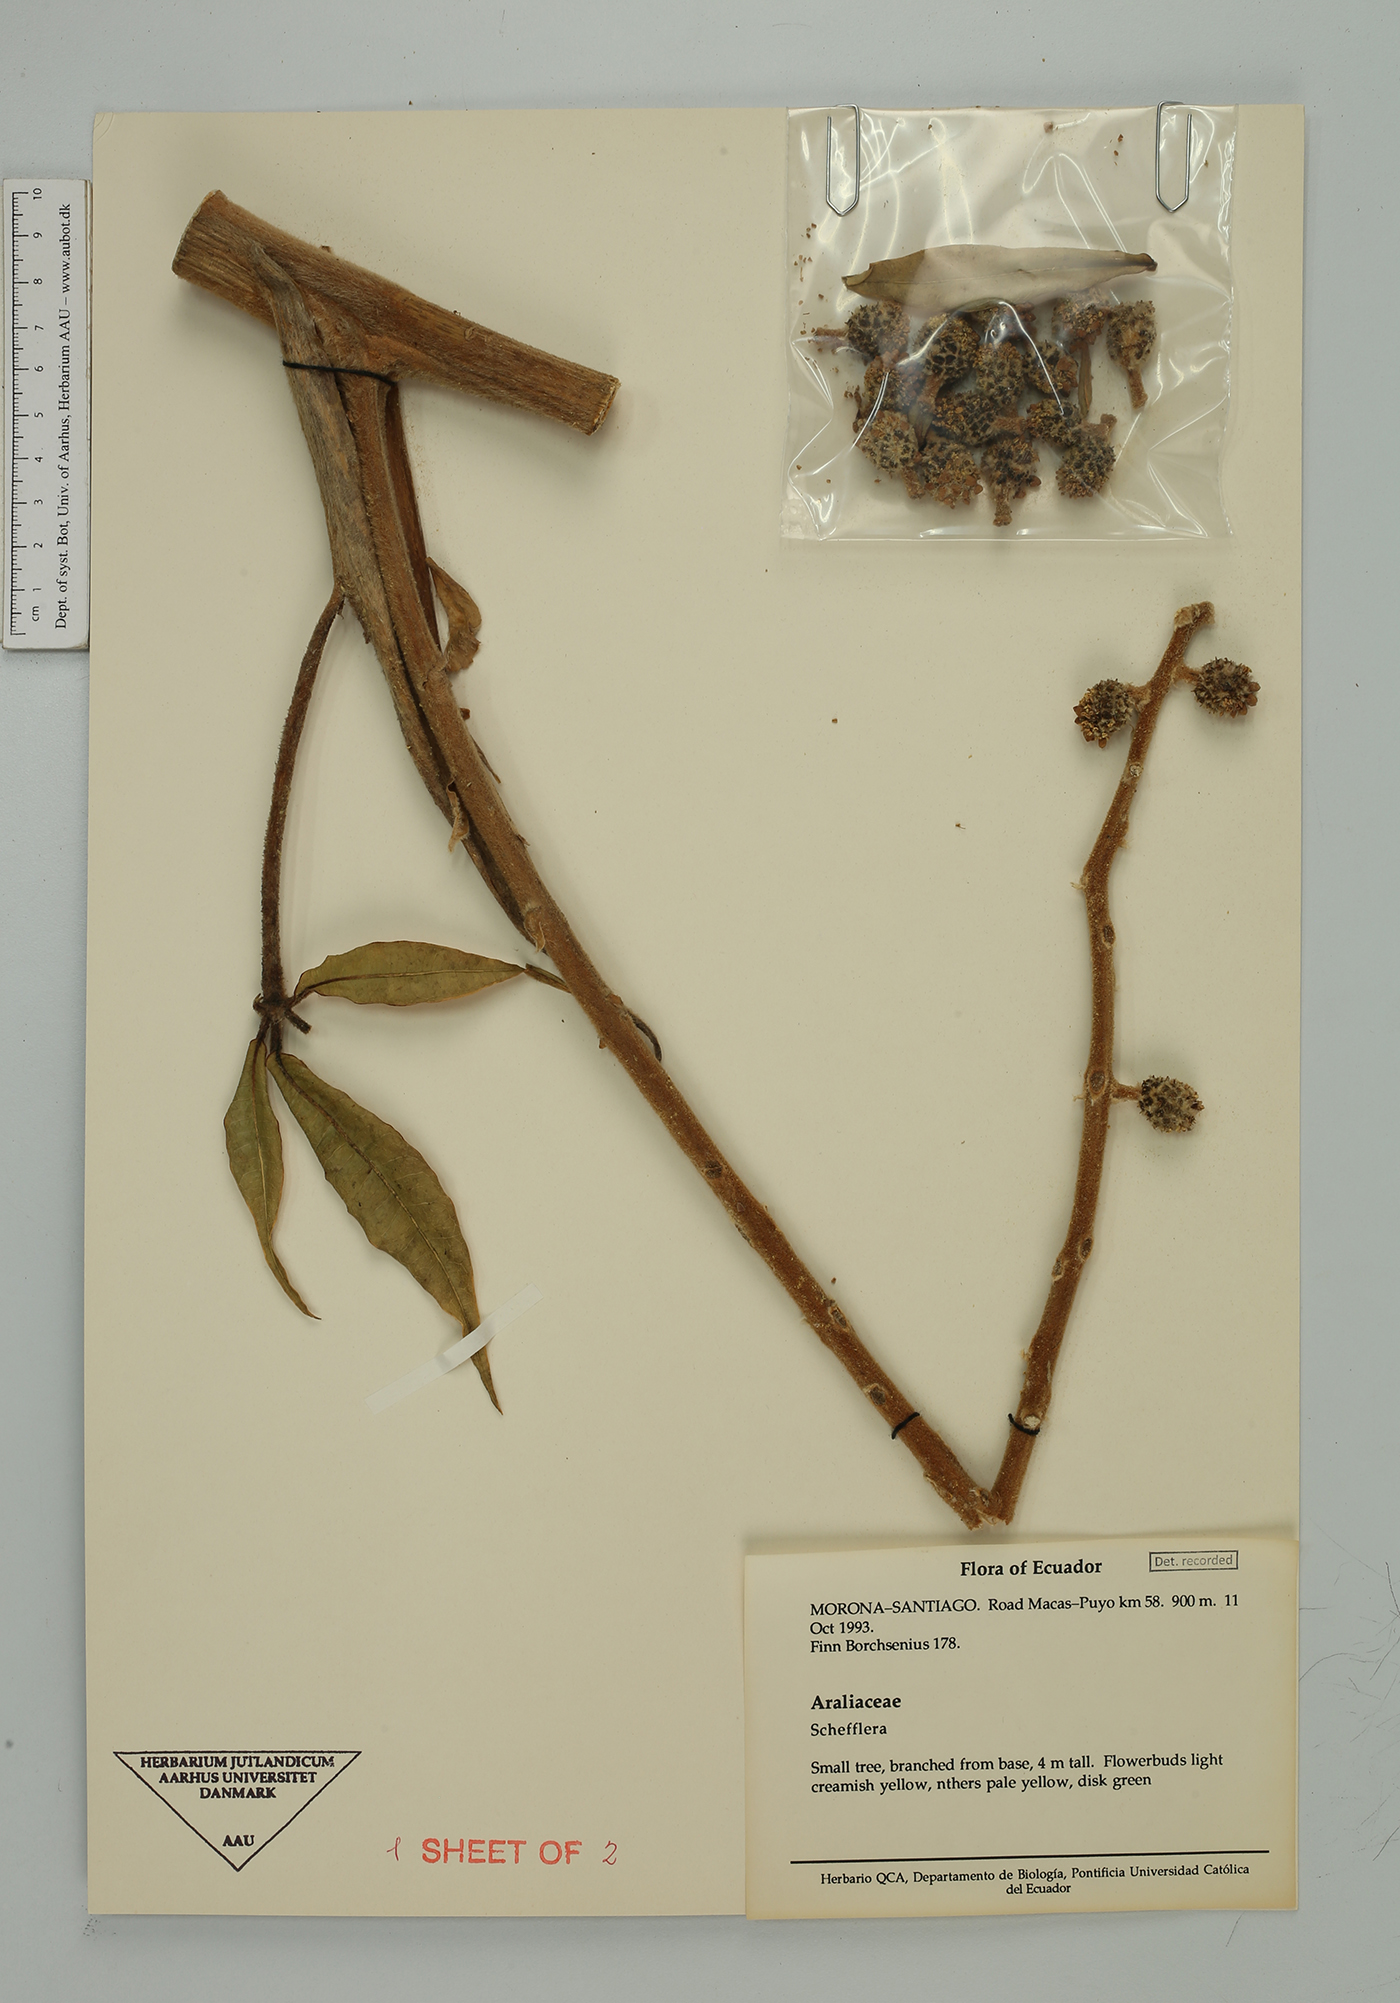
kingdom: Plantae
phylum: Tracheophyta
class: Magnoliopsida
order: Apiales
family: Araliaceae
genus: Sciodaphyllum
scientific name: Sciodaphyllum pentandrum
